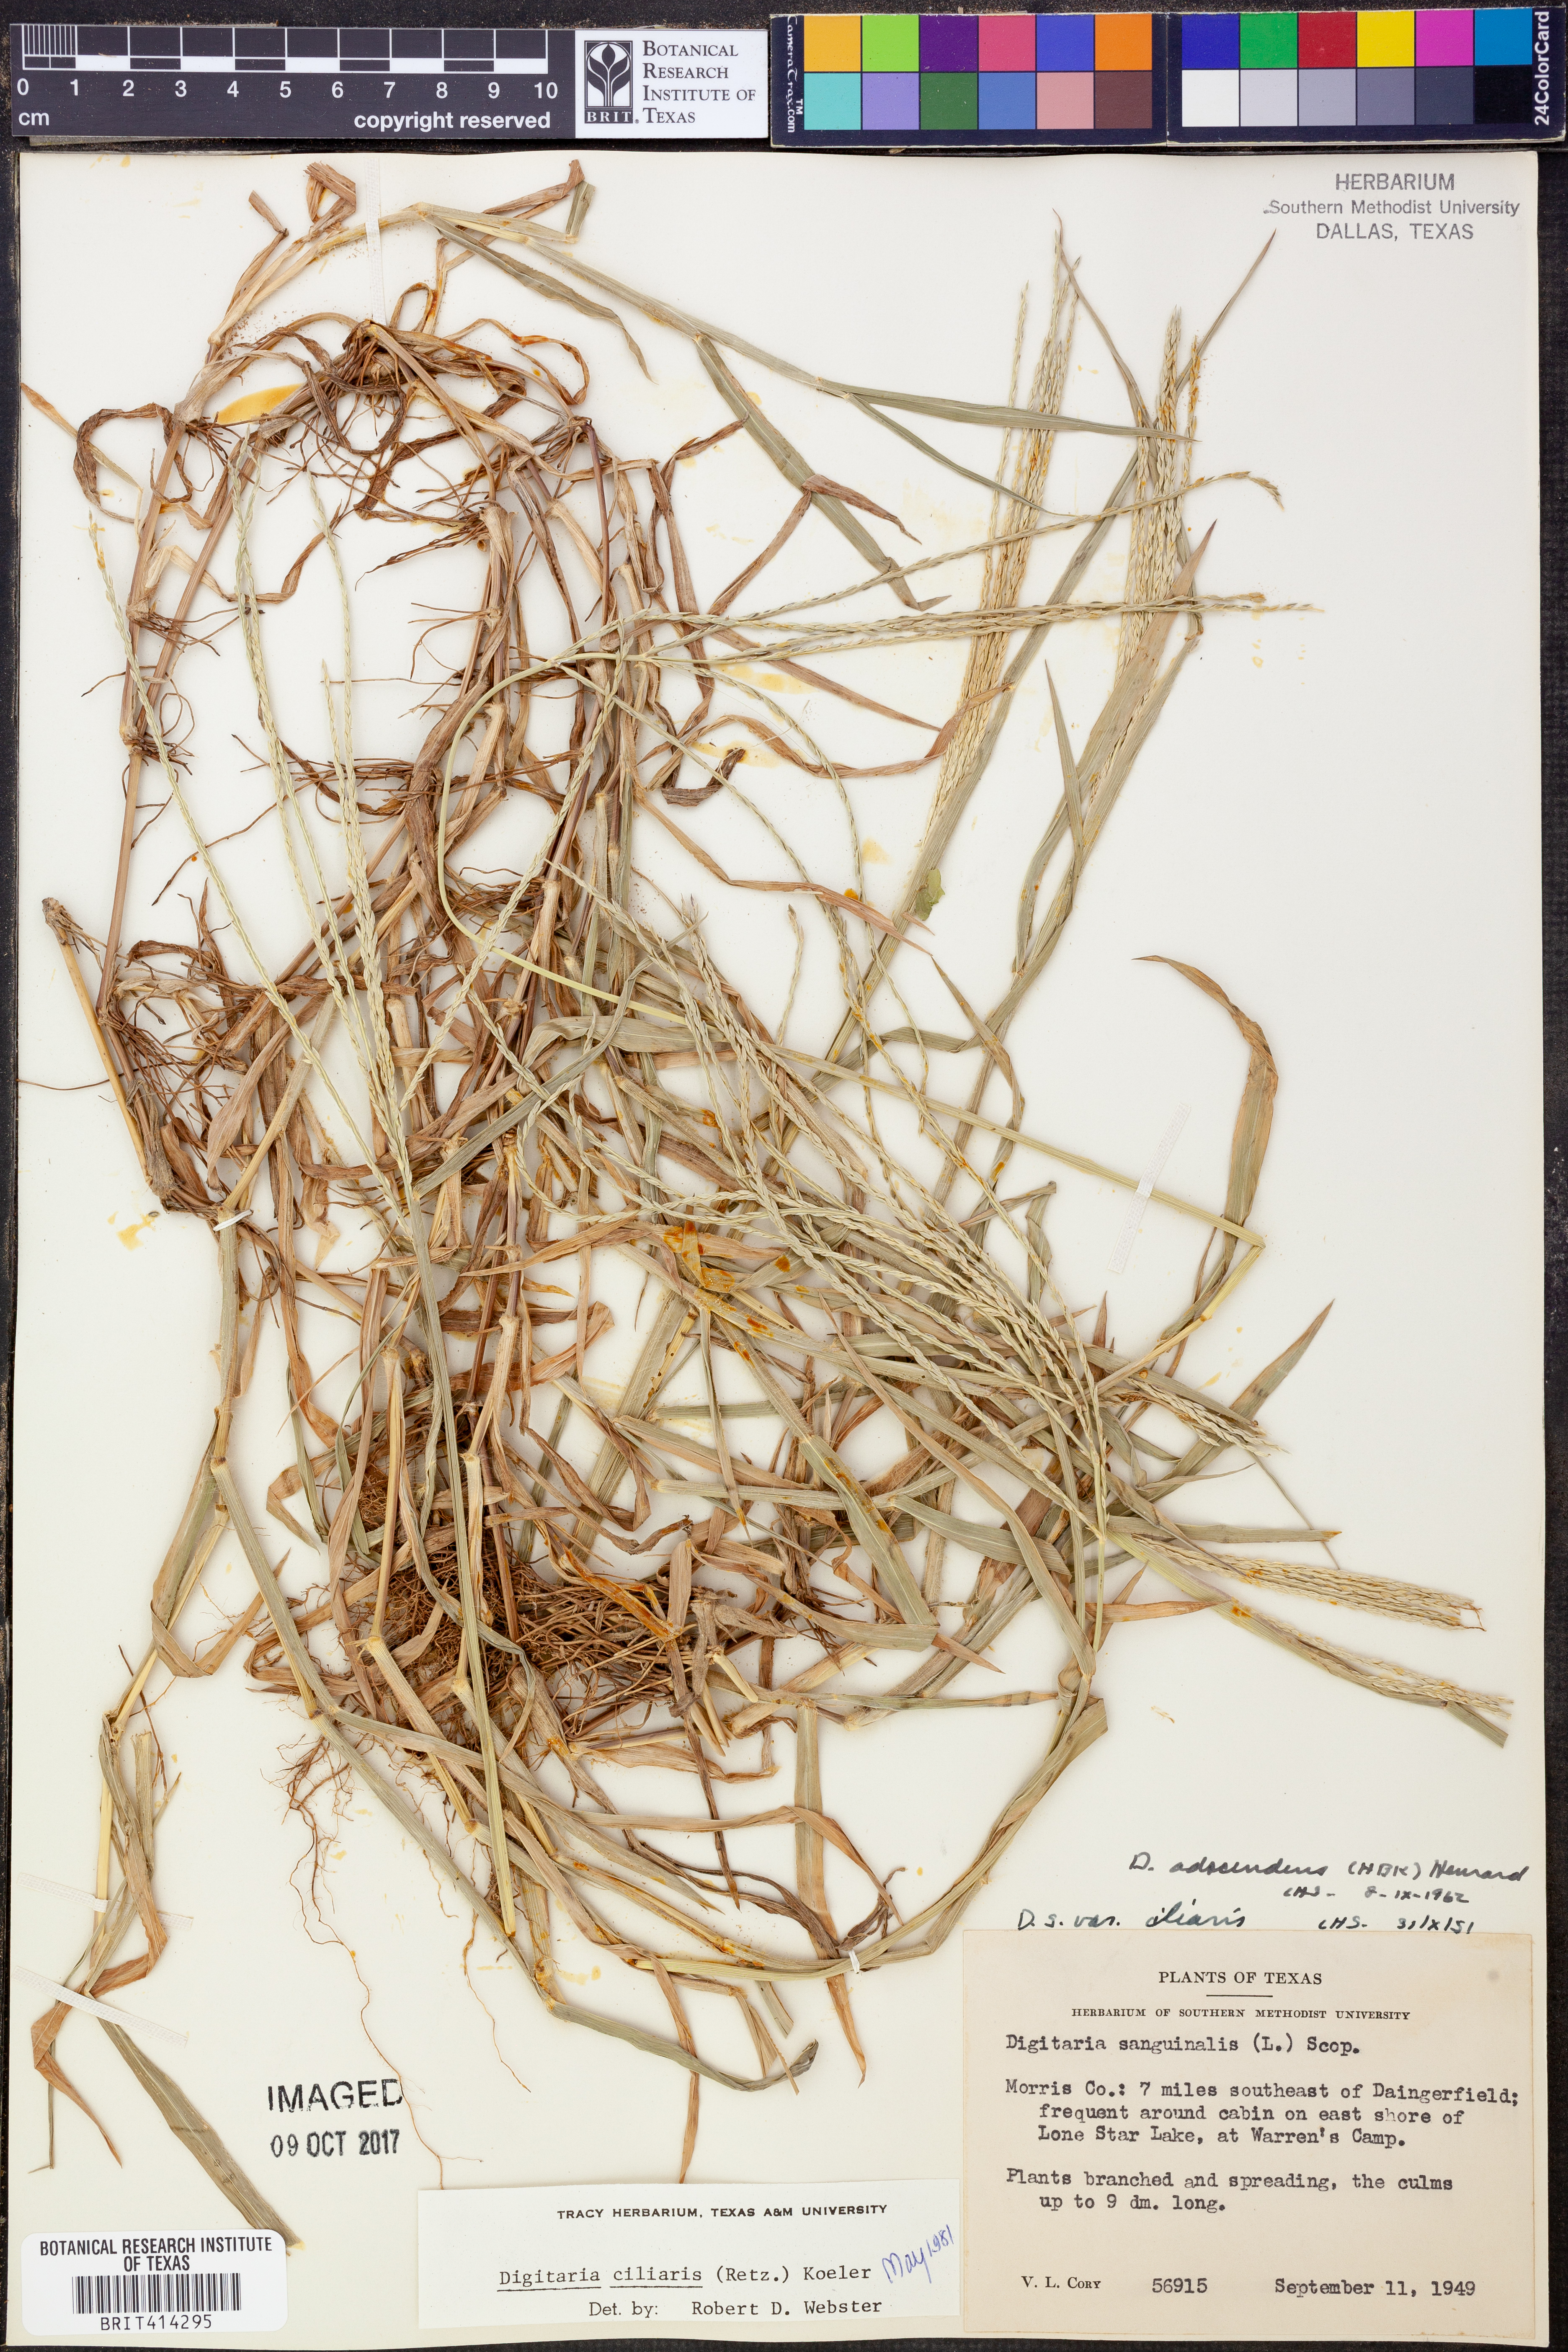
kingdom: Plantae
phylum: Tracheophyta
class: Liliopsida
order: Poales
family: Poaceae
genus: Digitaria
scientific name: Digitaria ciliaris
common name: Tropical finger-grass
